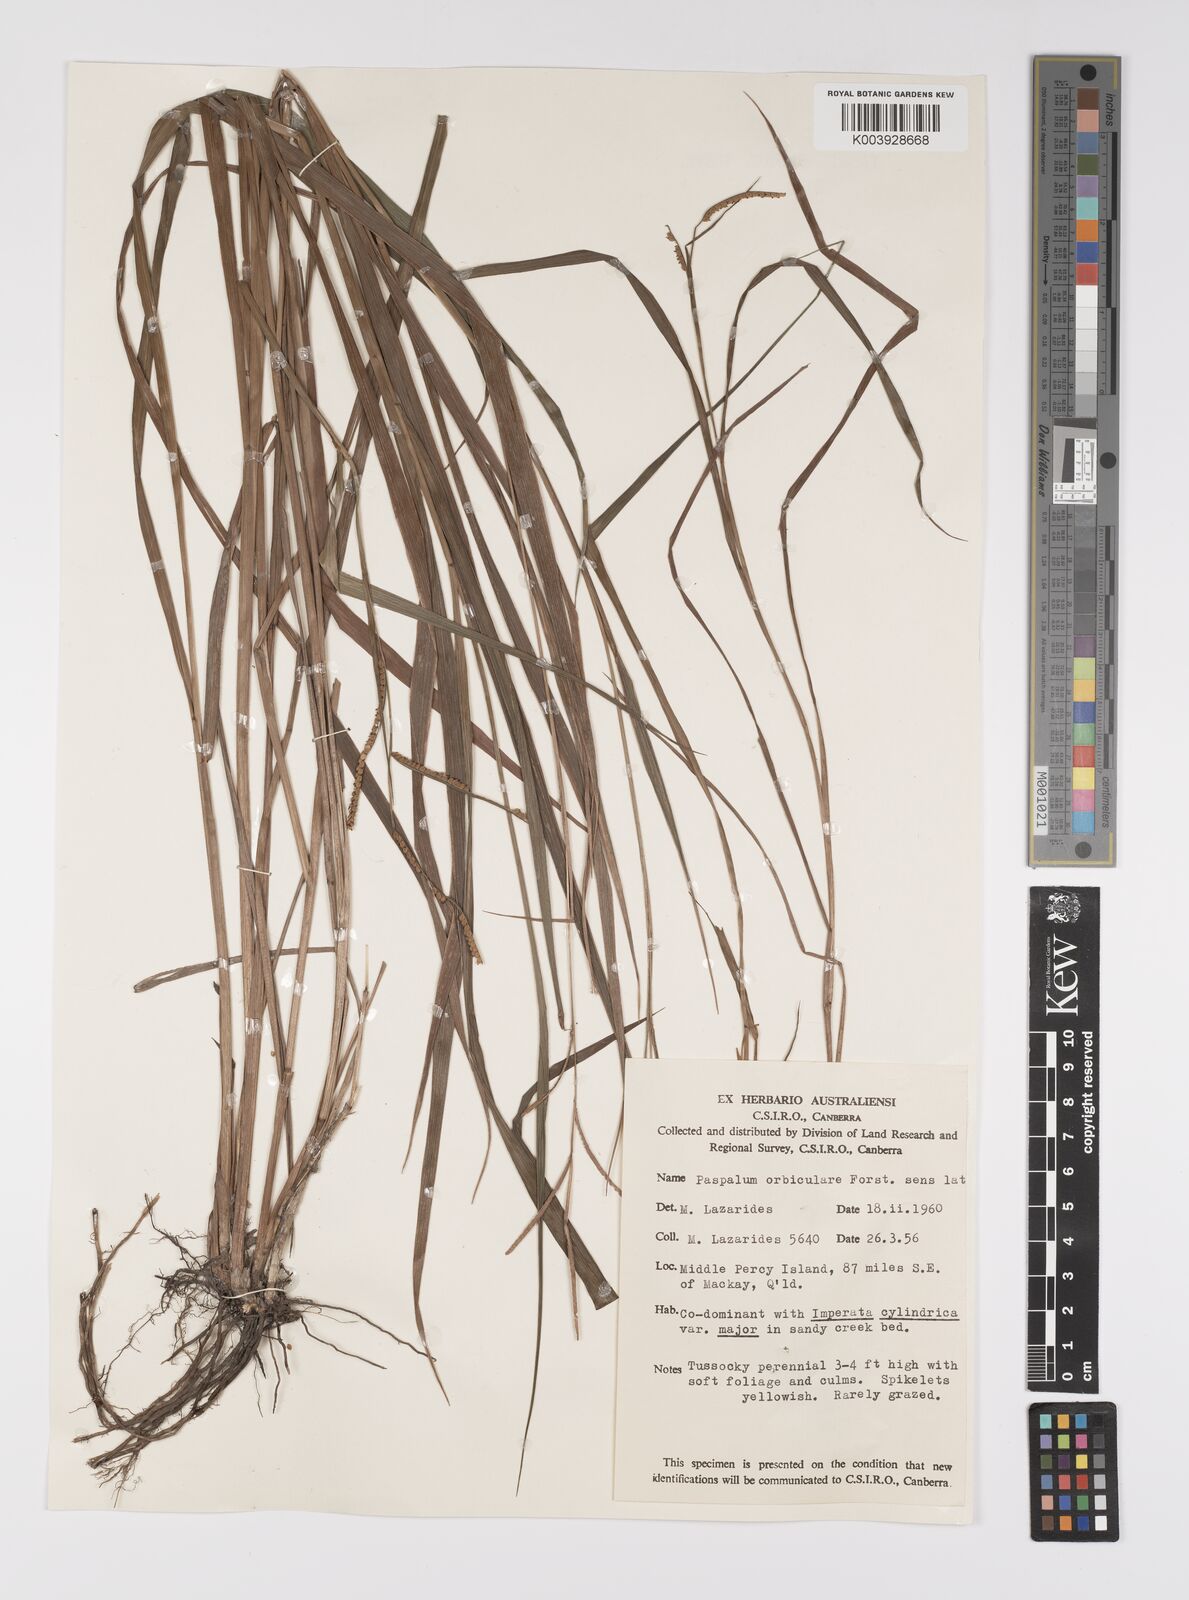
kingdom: Plantae
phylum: Tracheophyta
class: Liliopsida
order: Poales
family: Poaceae
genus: Paspalum
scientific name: Paspalum scrobiculatum
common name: Kodo millet
